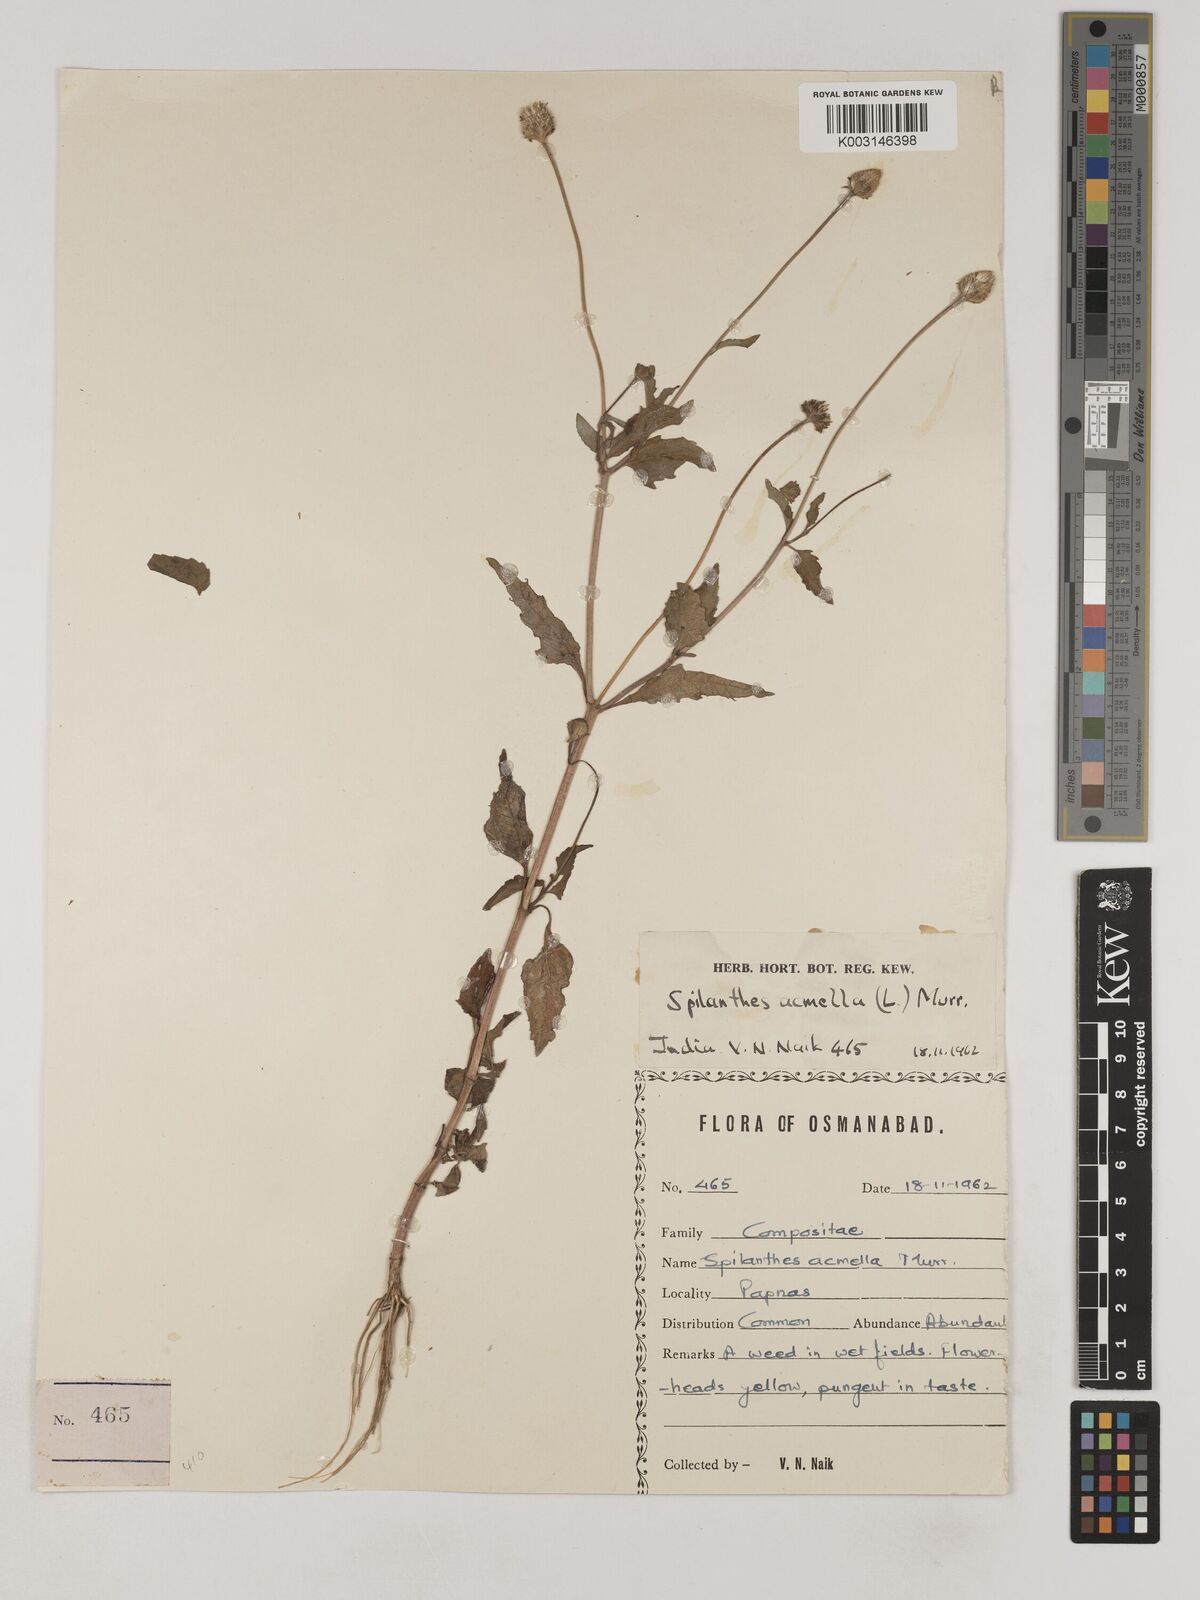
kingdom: Plantae
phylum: Tracheophyta
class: Magnoliopsida
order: Asterales
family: Asteraceae
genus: Acmella
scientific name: Acmella calva
